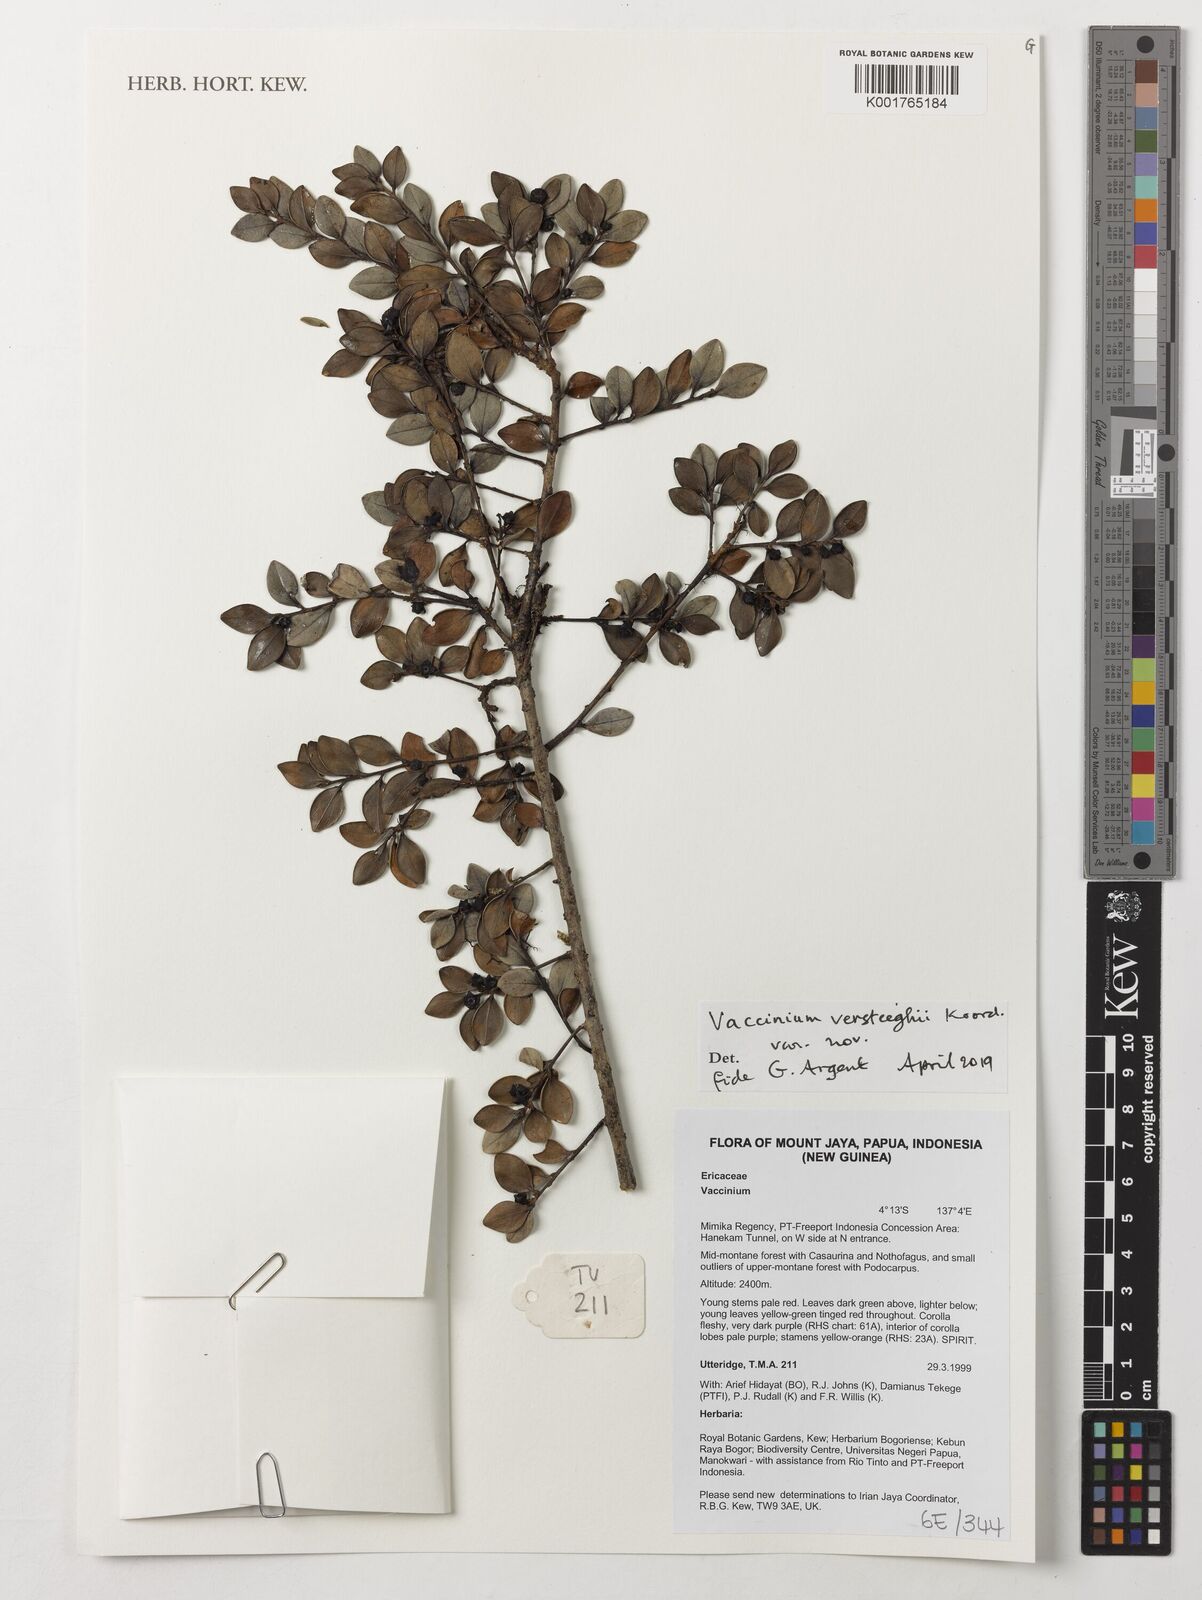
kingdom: Plantae
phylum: Tracheophyta
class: Magnoliopsida
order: Ericales
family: Ericaceae
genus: Vaccinium
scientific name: Vaccinium versteegii
